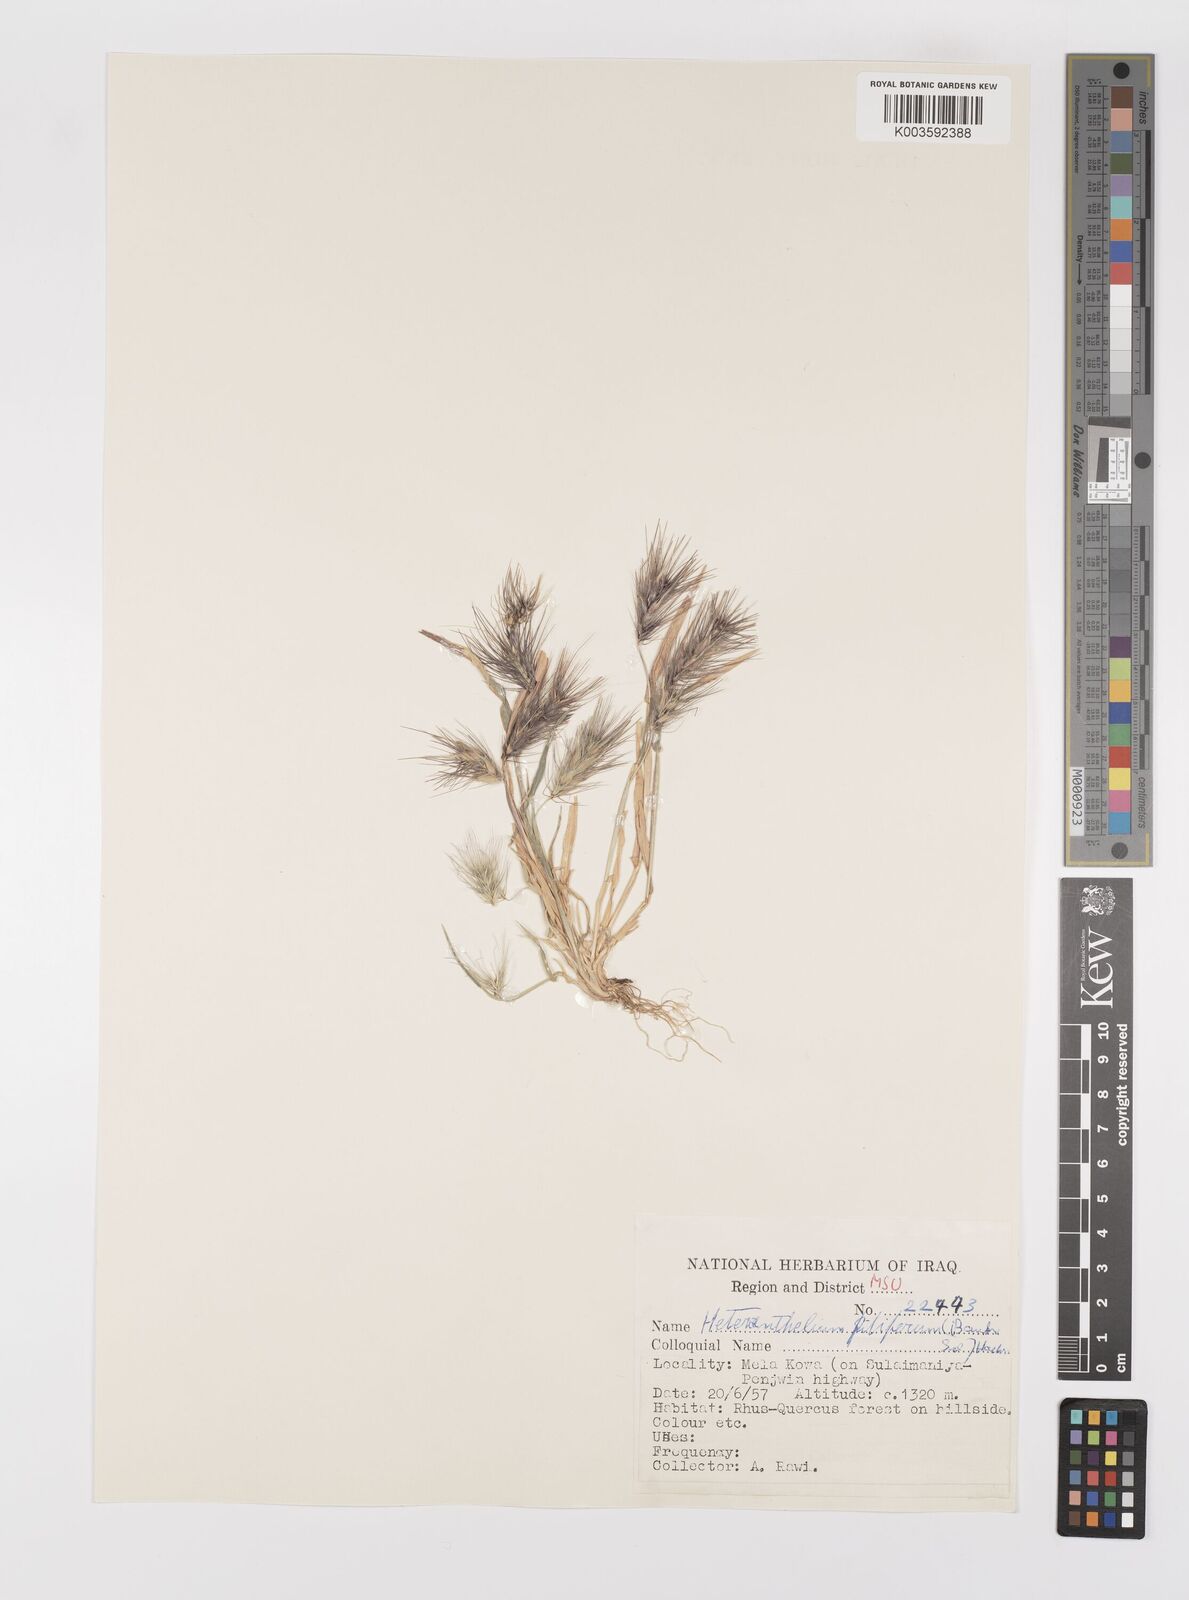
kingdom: Plantae
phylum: Tracheophyta
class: Liliopsida
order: Poales
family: Poaceae
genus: Heteranthelium
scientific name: Heteranthelium piliferum
